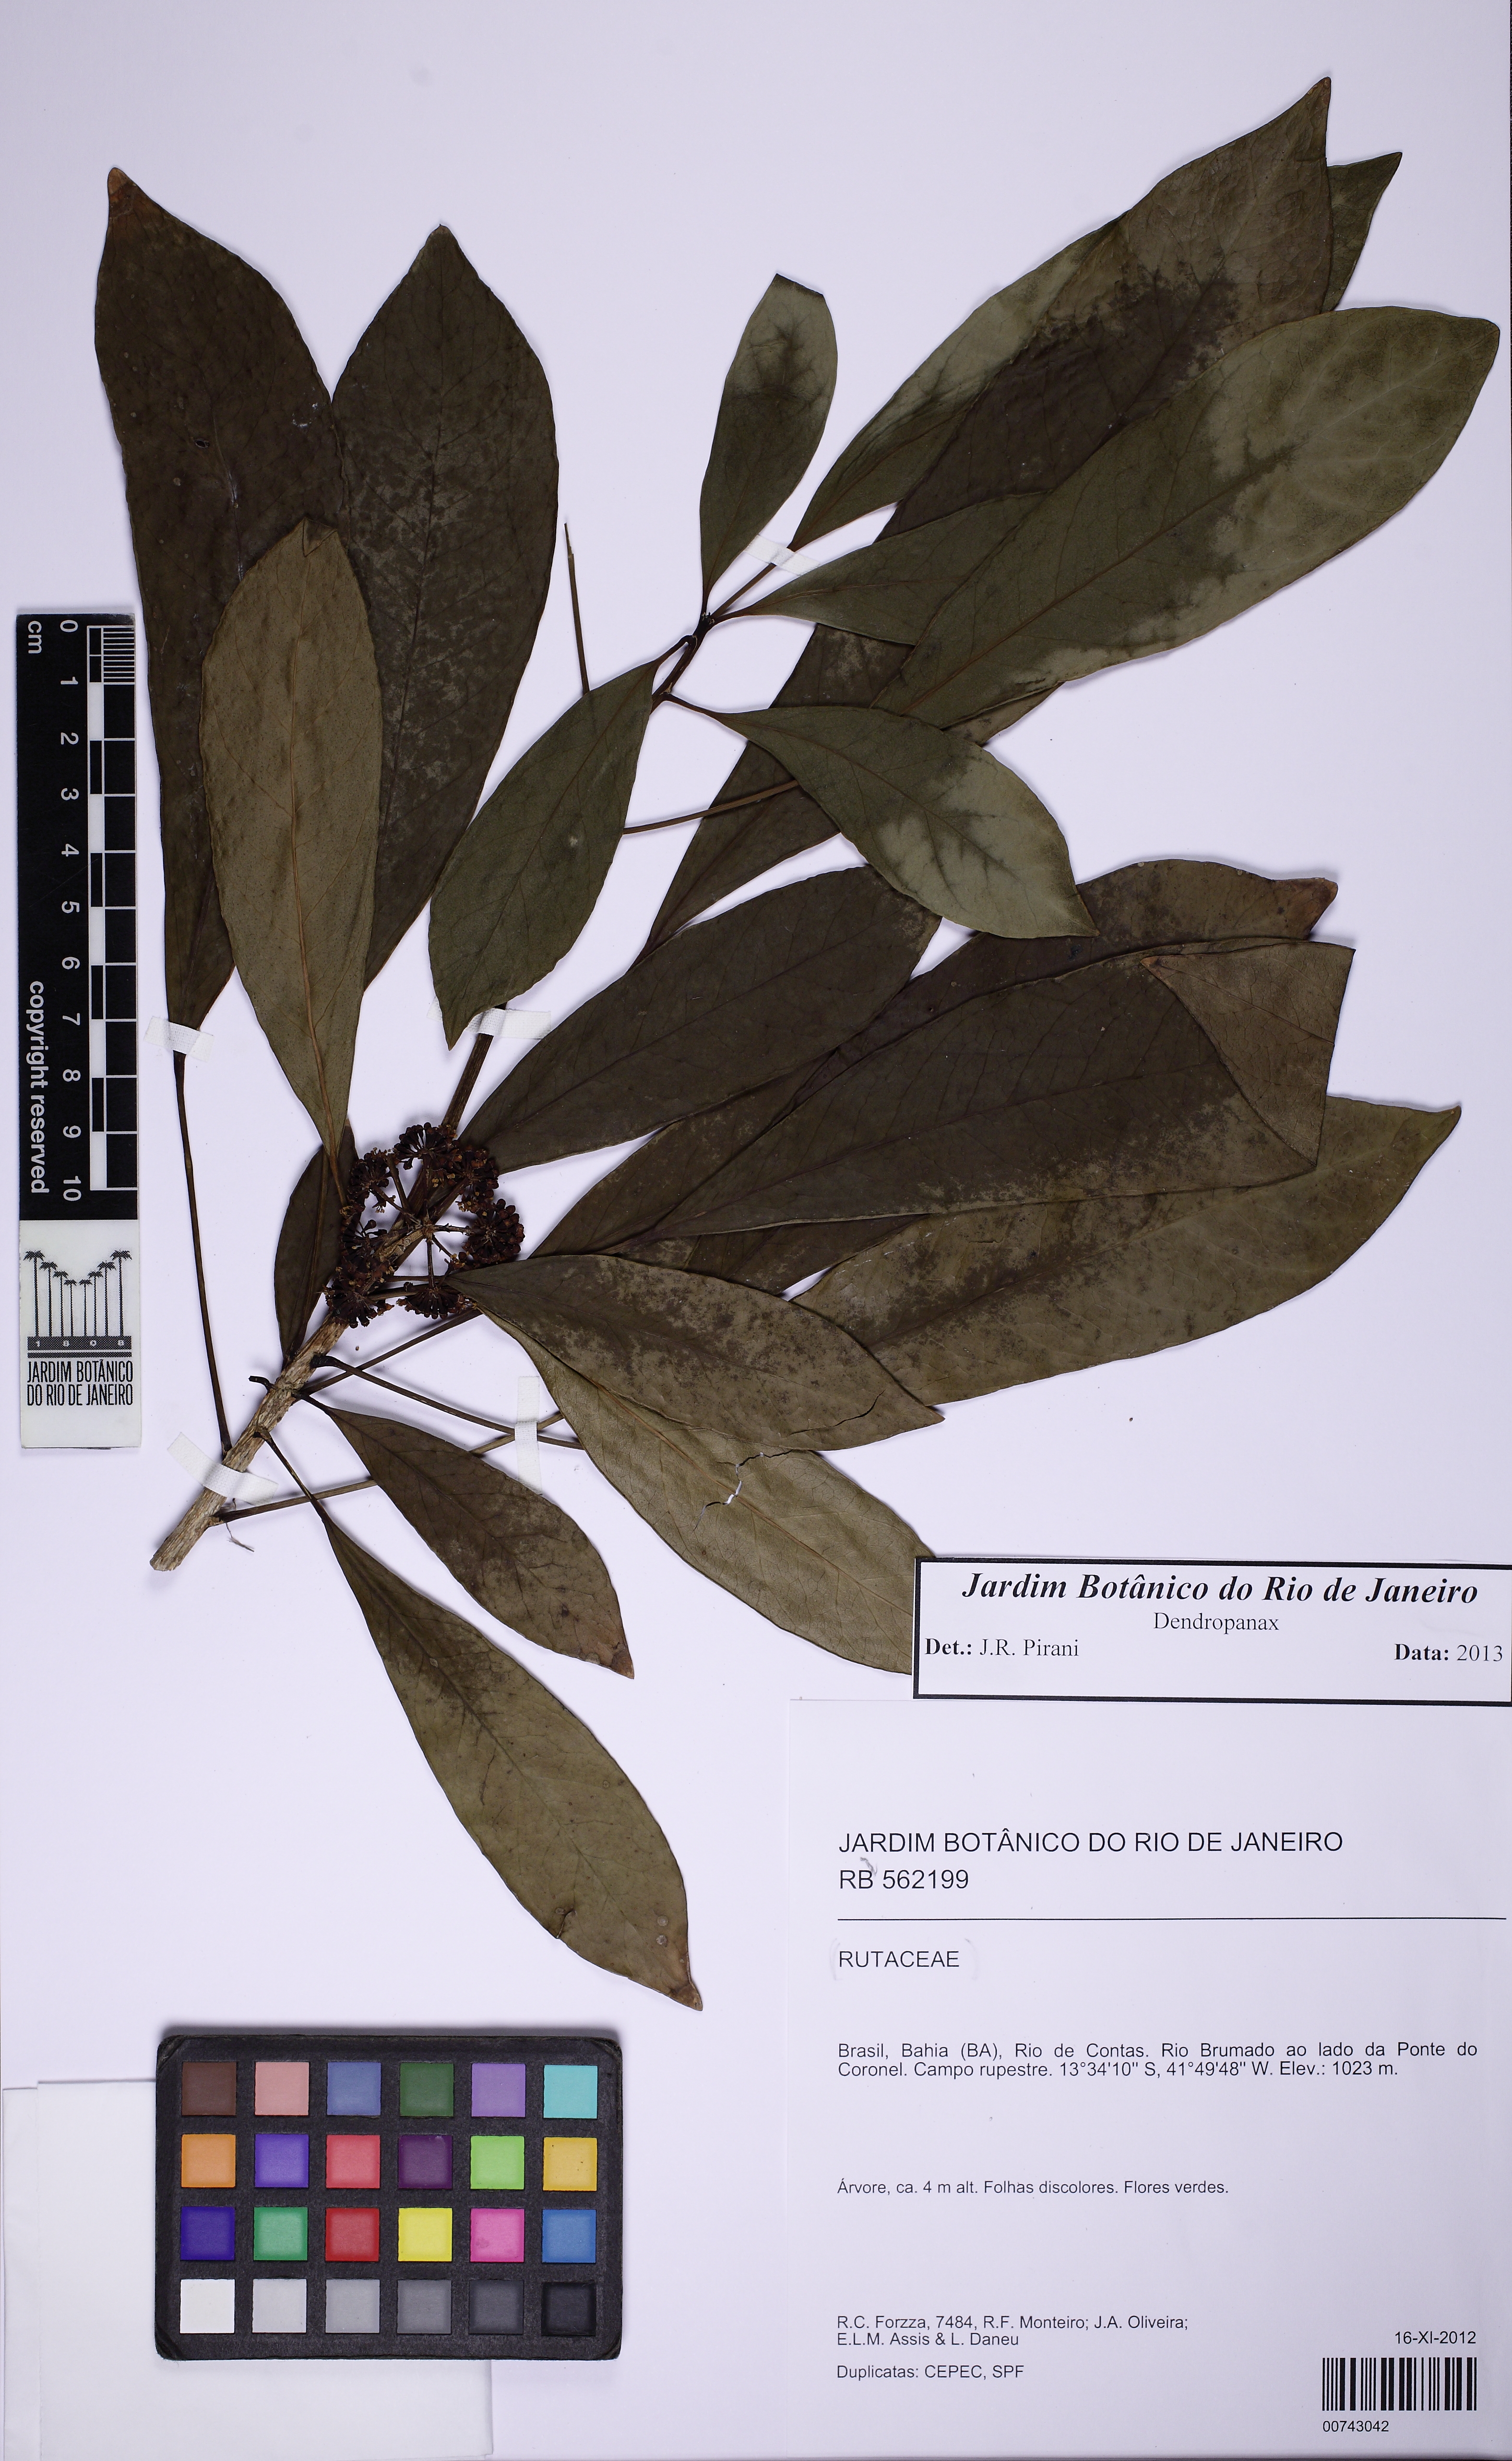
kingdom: Plantae
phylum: Tracheophyta
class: Magnoliopsida
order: Apiales
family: Araliaceae
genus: Dendropanax
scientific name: Dendropanax cuneatus
